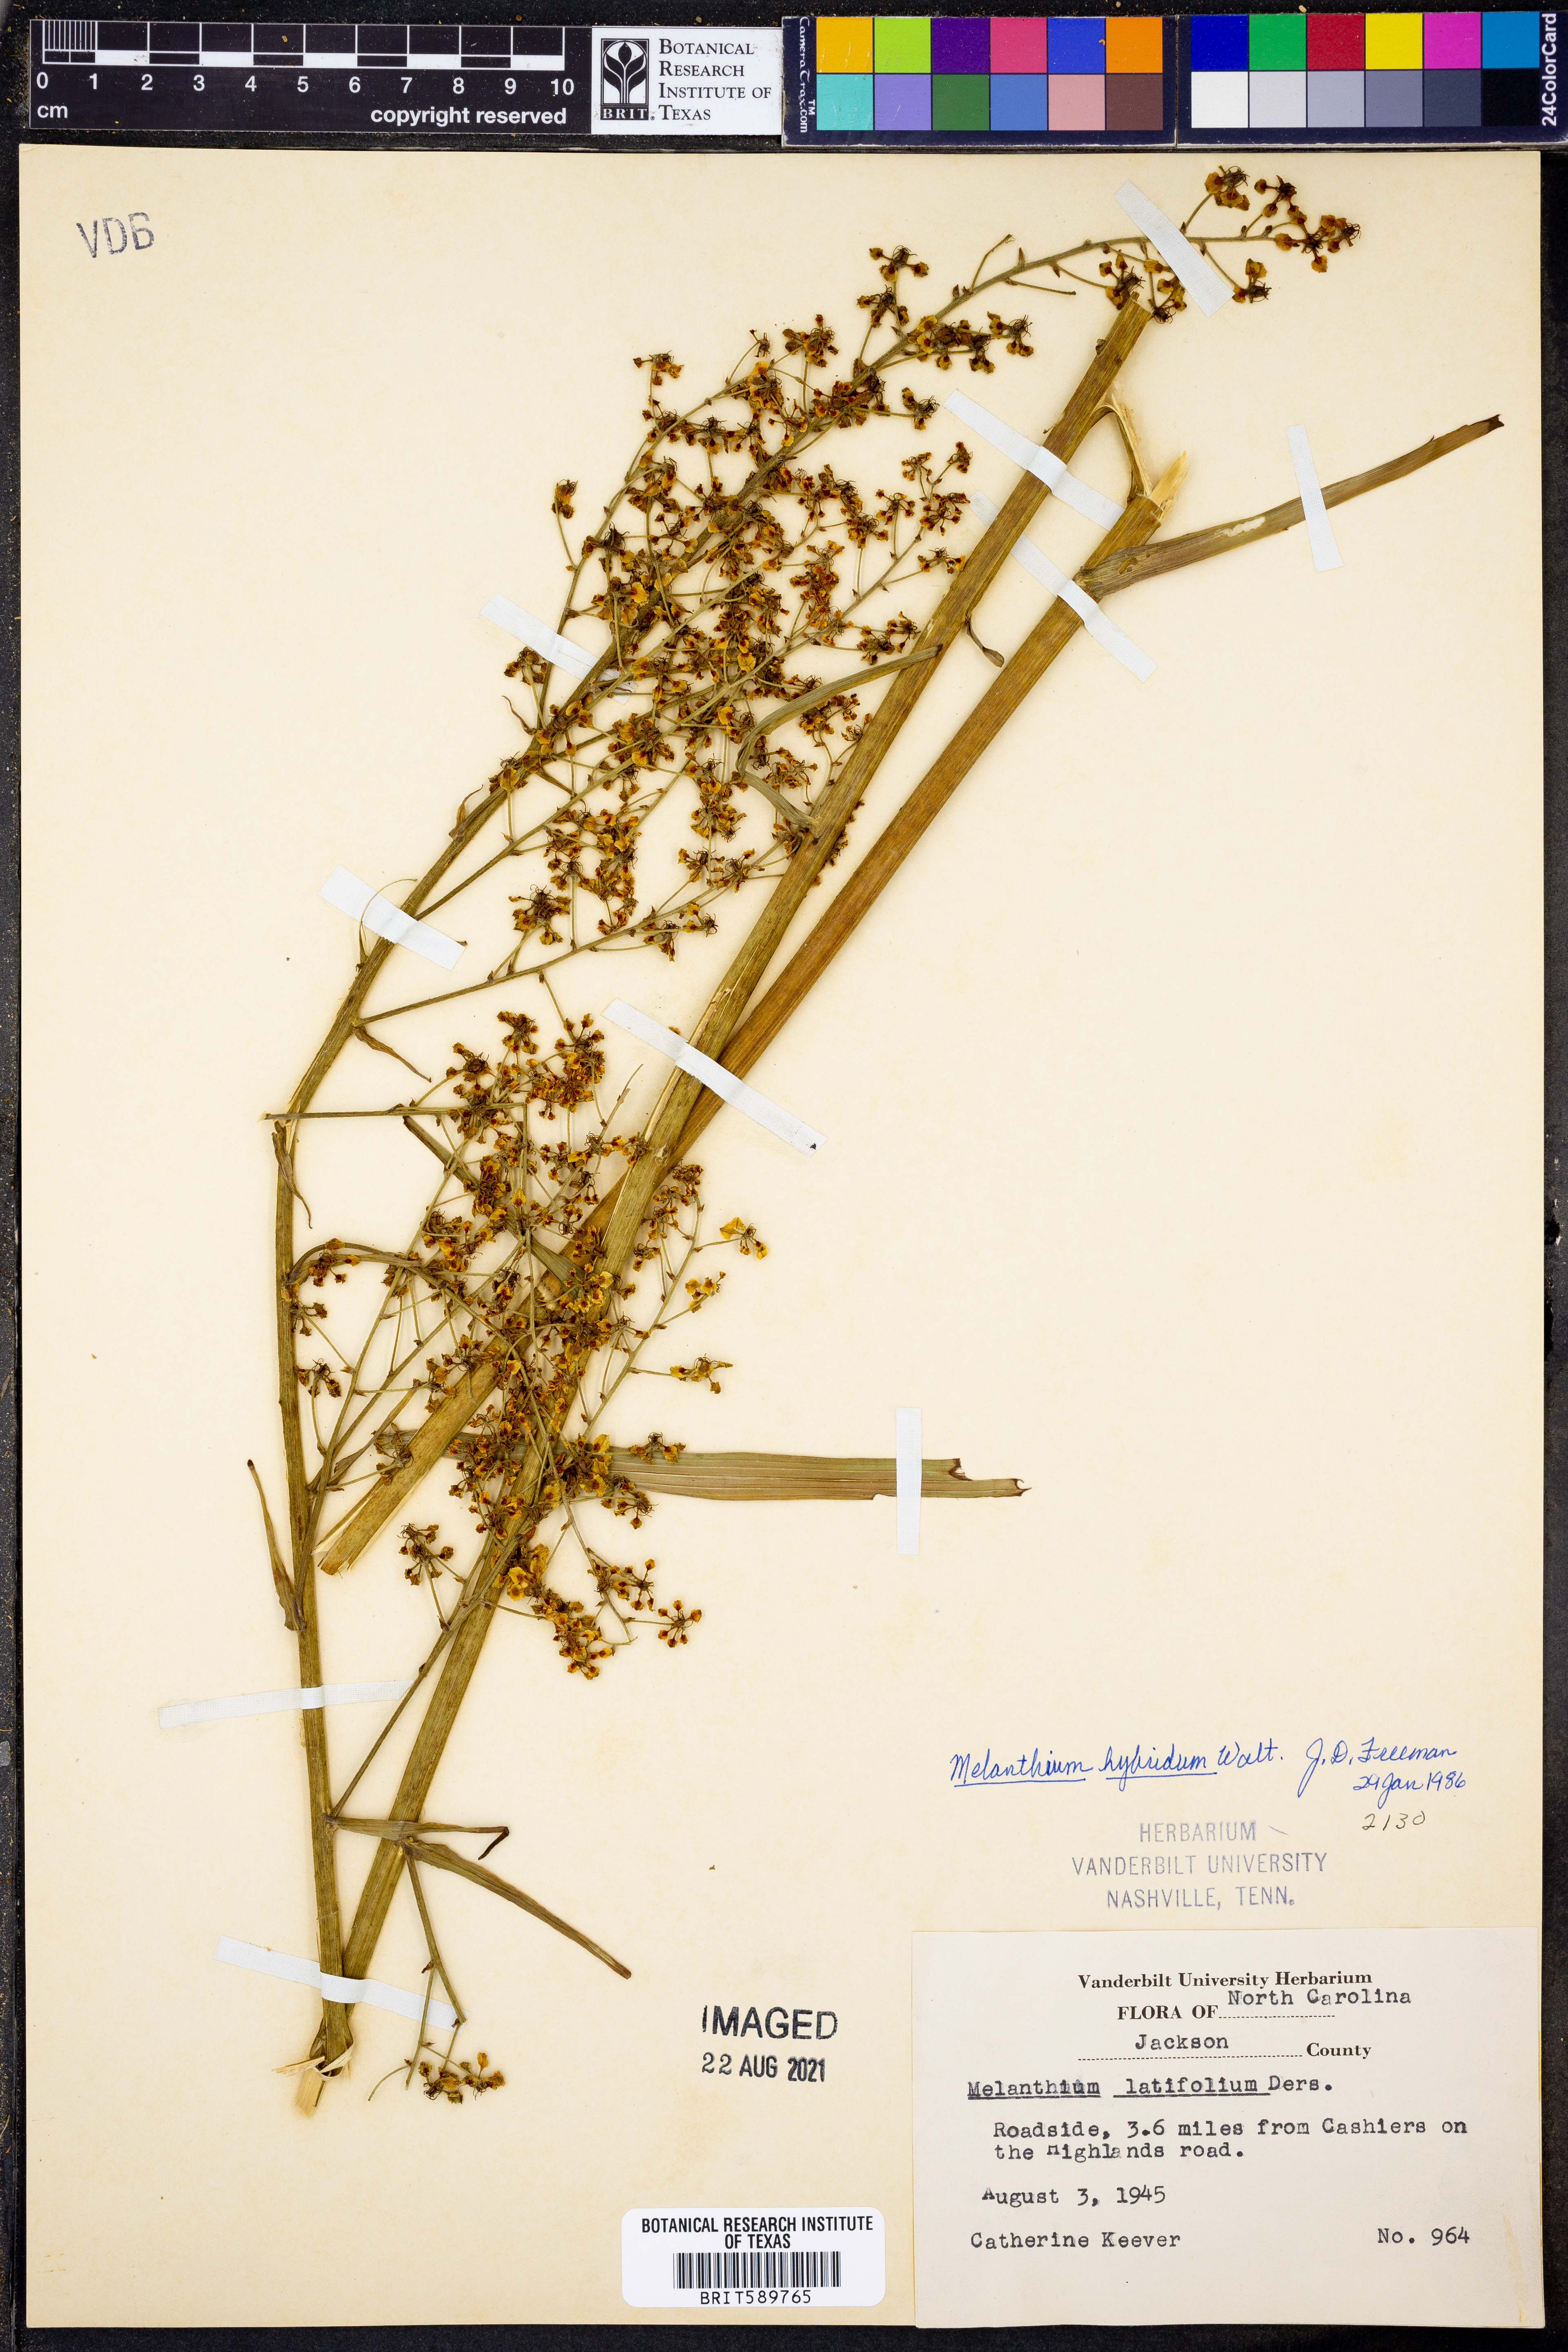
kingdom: Plantae
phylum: Tracheophyta
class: Liliopsida
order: Liliales
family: Melanthiaceae
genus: Melanthium
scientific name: Melanthium hybridum
